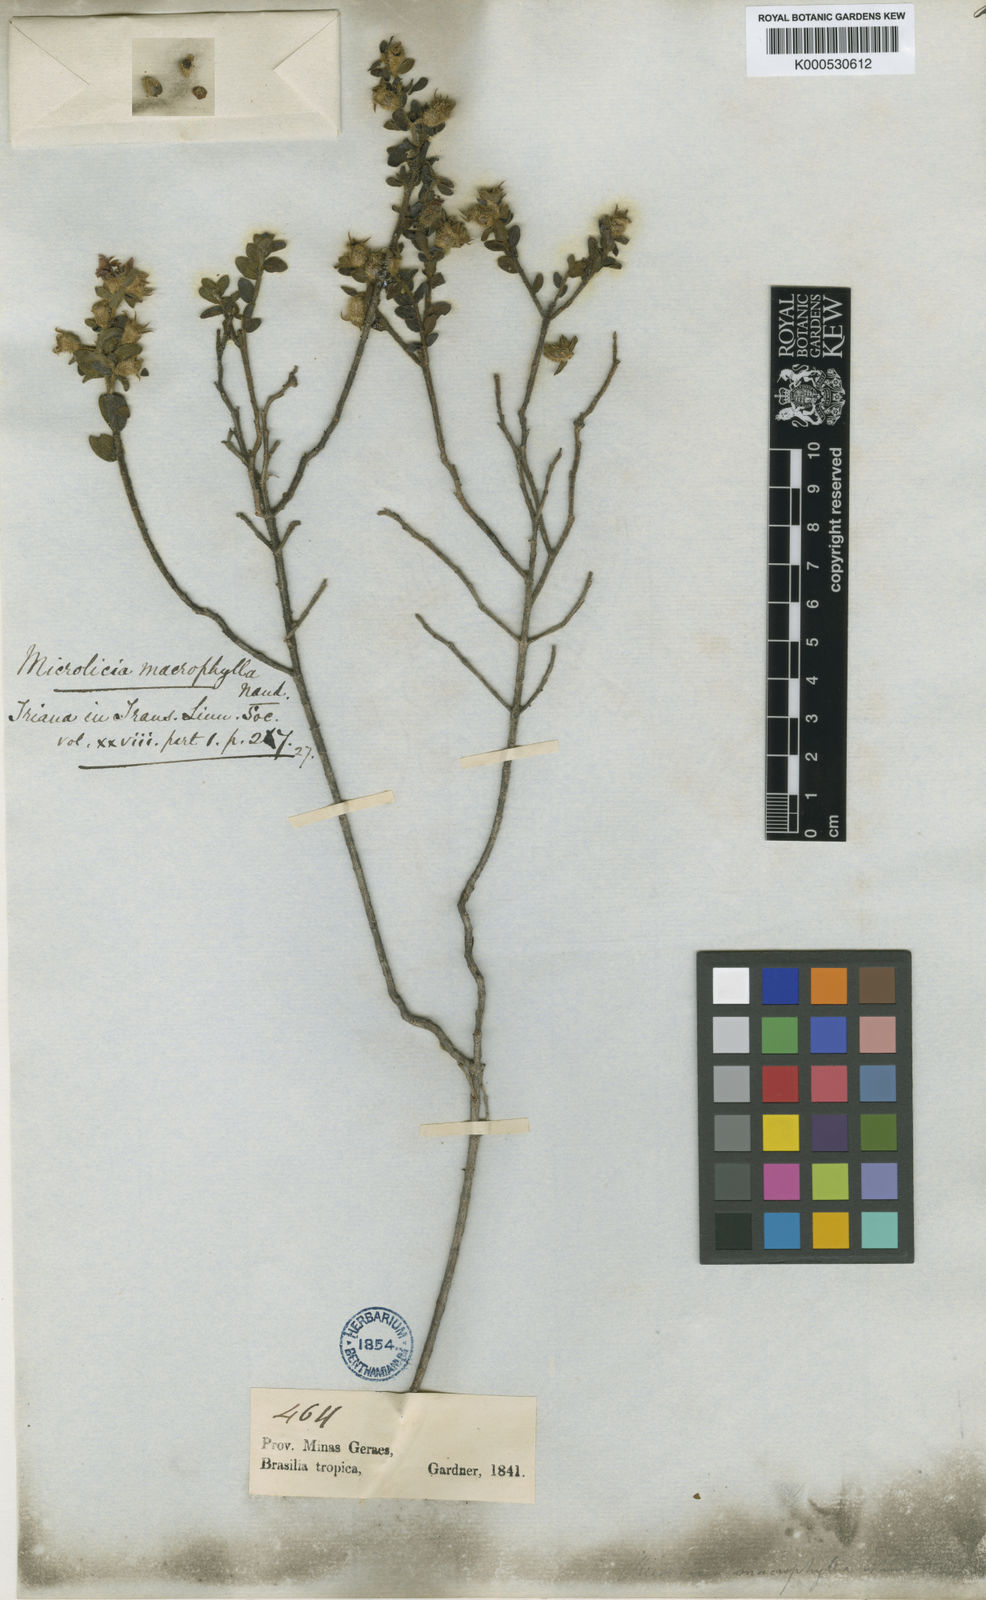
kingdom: Plantae
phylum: Tracheophyta
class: Magnoliopsida
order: Myrtales
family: Melastomataceae
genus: Microlicia
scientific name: Microlicia macrophylla
